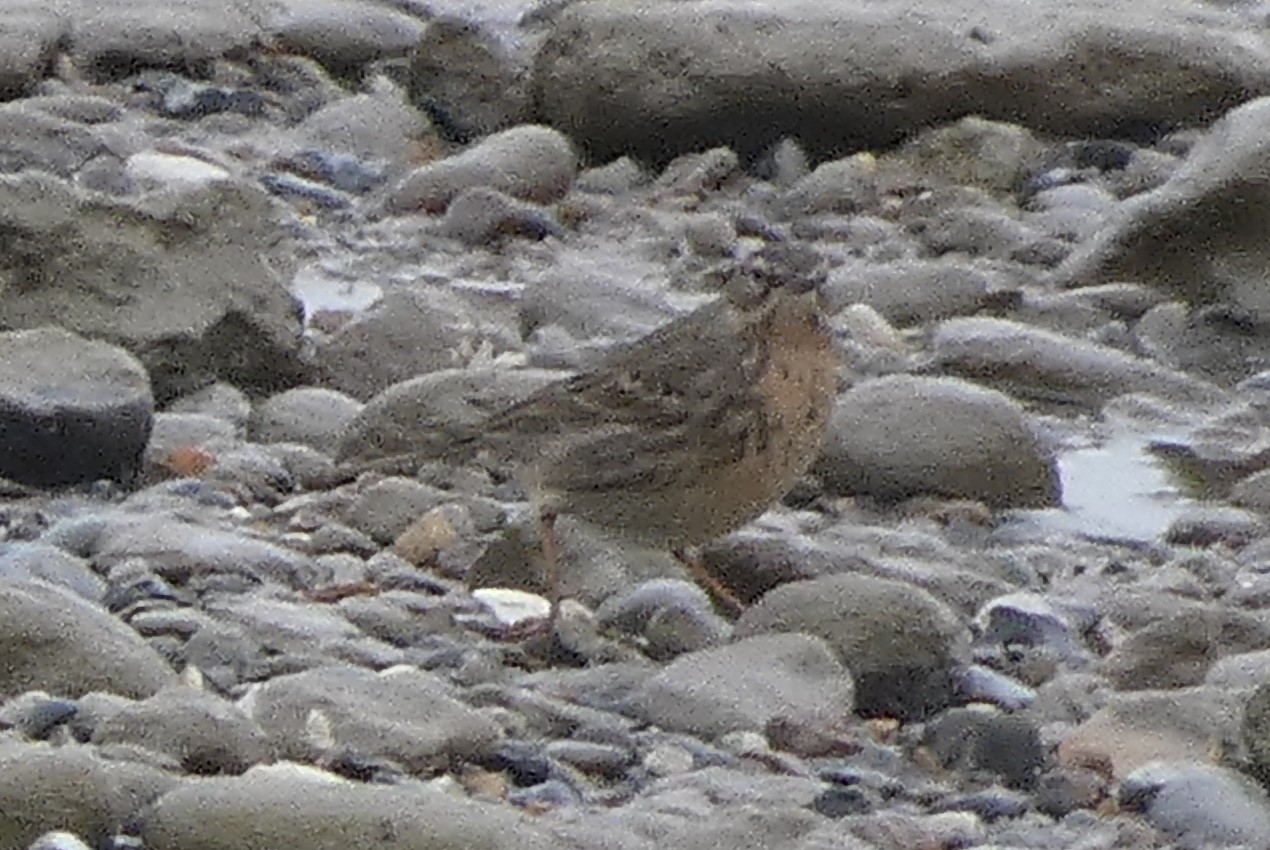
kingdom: Animalia
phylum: Chordata
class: Aves
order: Passeriformes
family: Motacillidae
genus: Anthus
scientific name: Anthus petrosus
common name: Skærpiber
